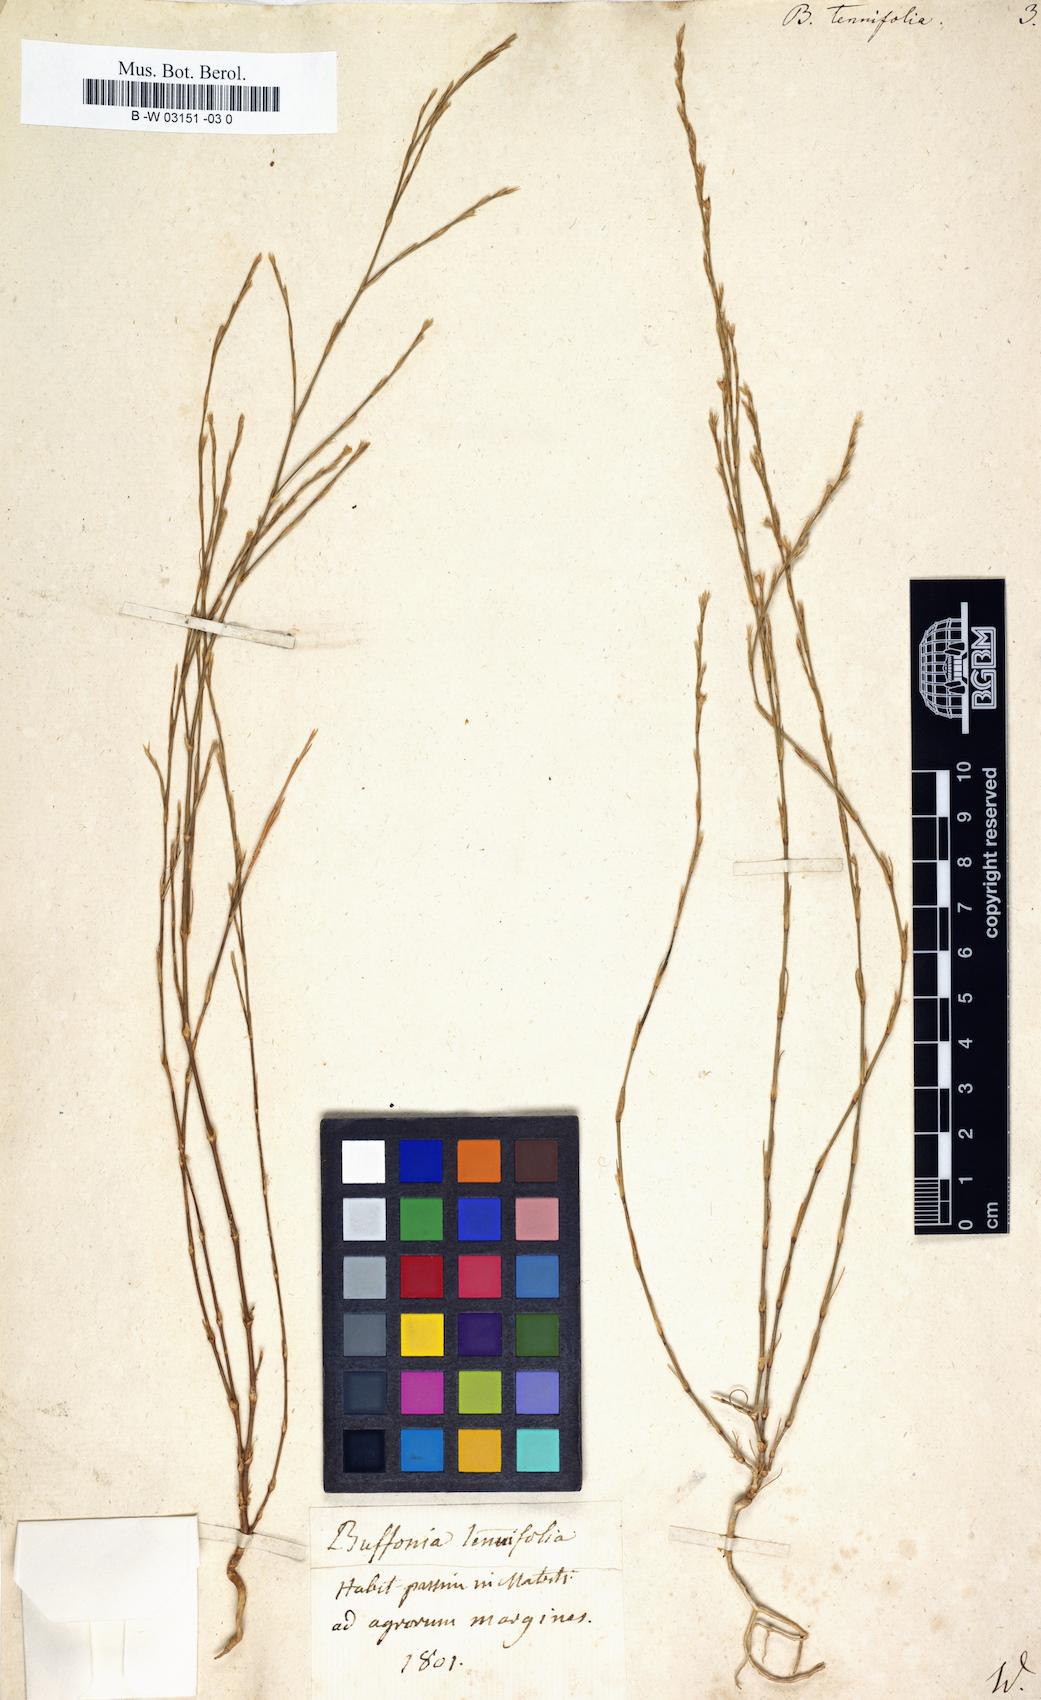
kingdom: Plantae
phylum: Tracheophyta
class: Magnoliopsida
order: Caryophyllales
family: Caryophyllaceae
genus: Bufonia
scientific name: Bufonia tenuifolia
